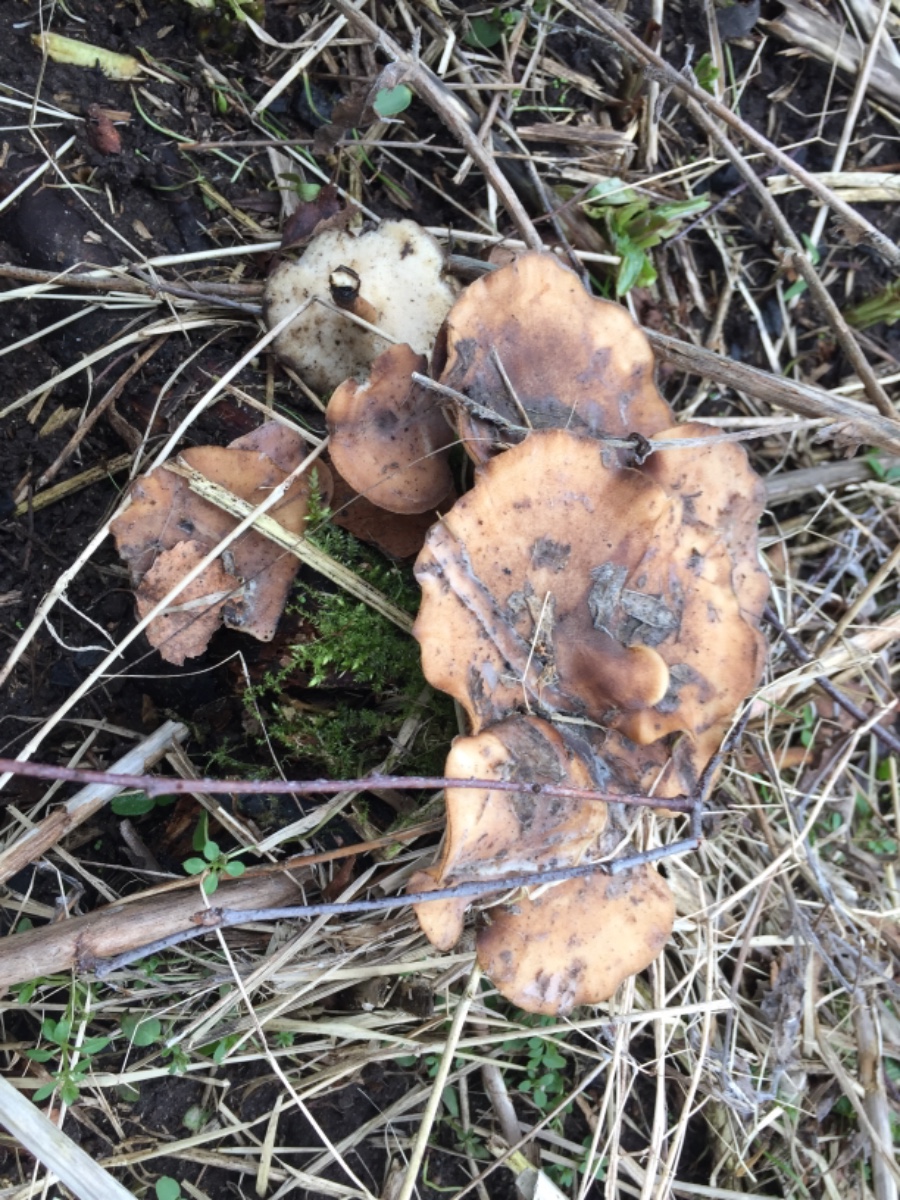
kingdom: Fungi
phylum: Basidiomycota
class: Agaricomycetes
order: Polyporales
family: Polyporaceae
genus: Lentinus
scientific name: Lentinus brumalis
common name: vinter-stilkporesvamp
